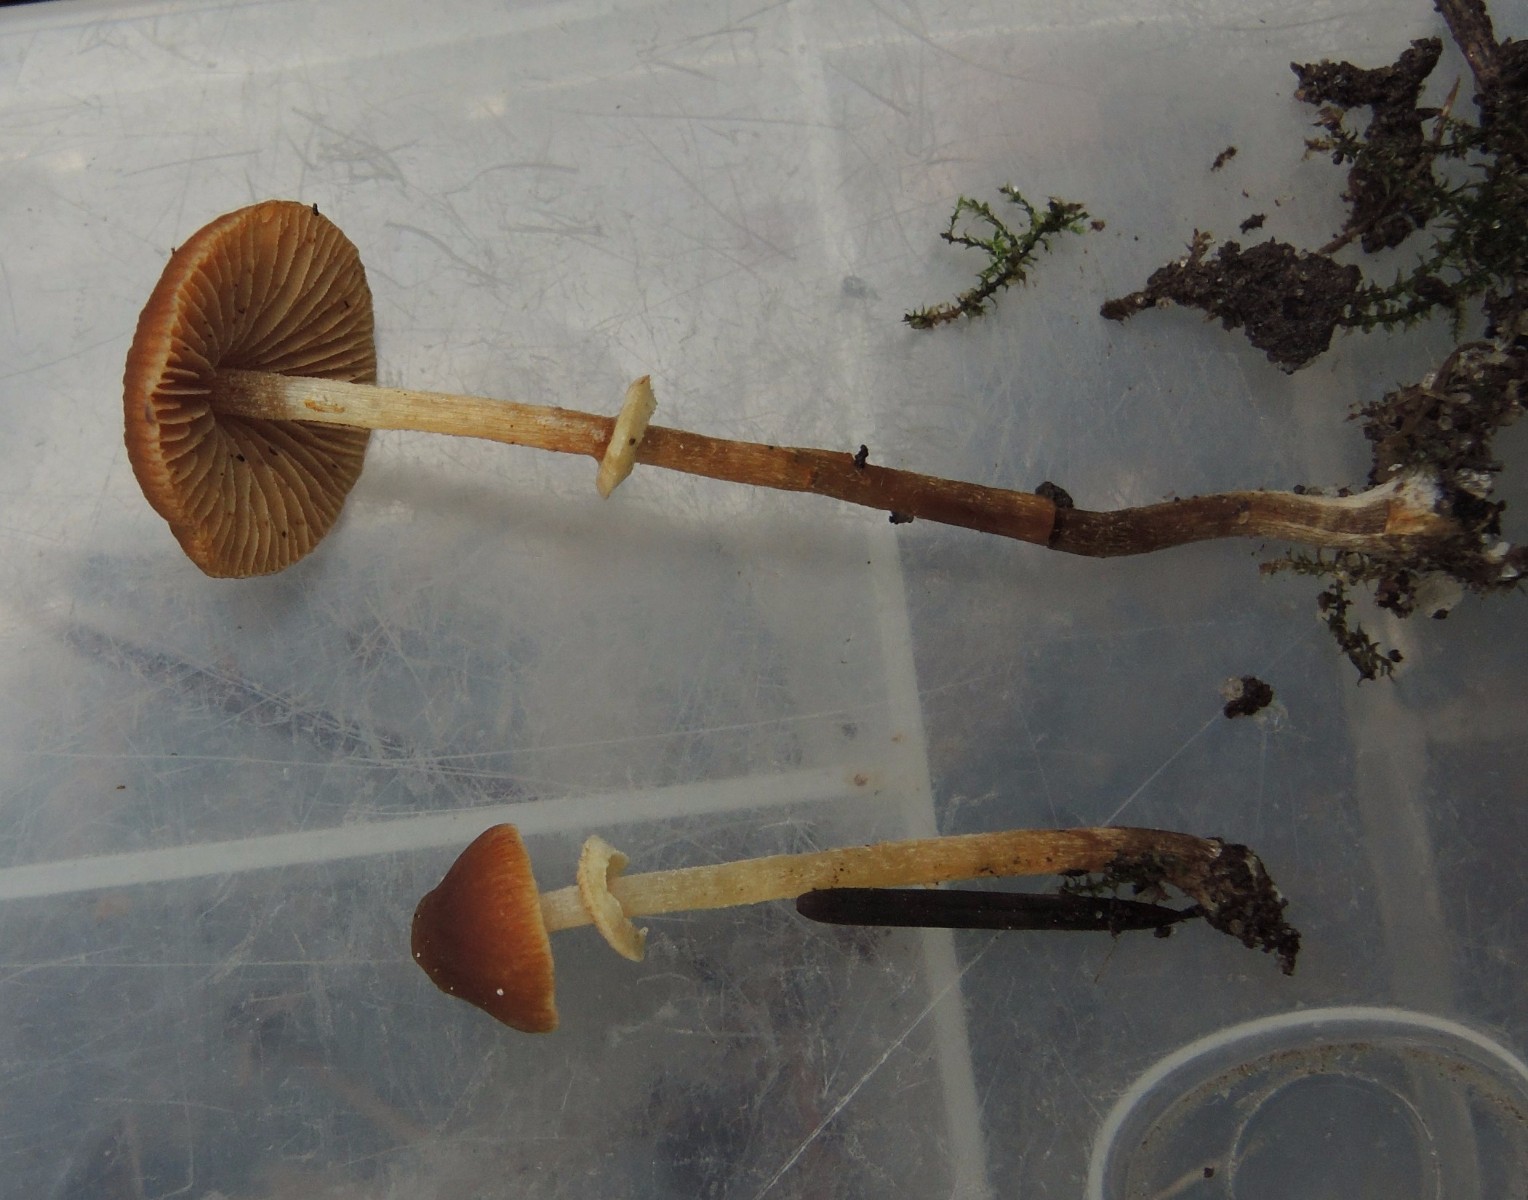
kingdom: Fungi
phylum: Basidiomycota
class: Agaricomycetes
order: Agaricales
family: Bolbitiaceae
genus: Conocybe
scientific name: Conocybe rugosa
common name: giftig dansehat
